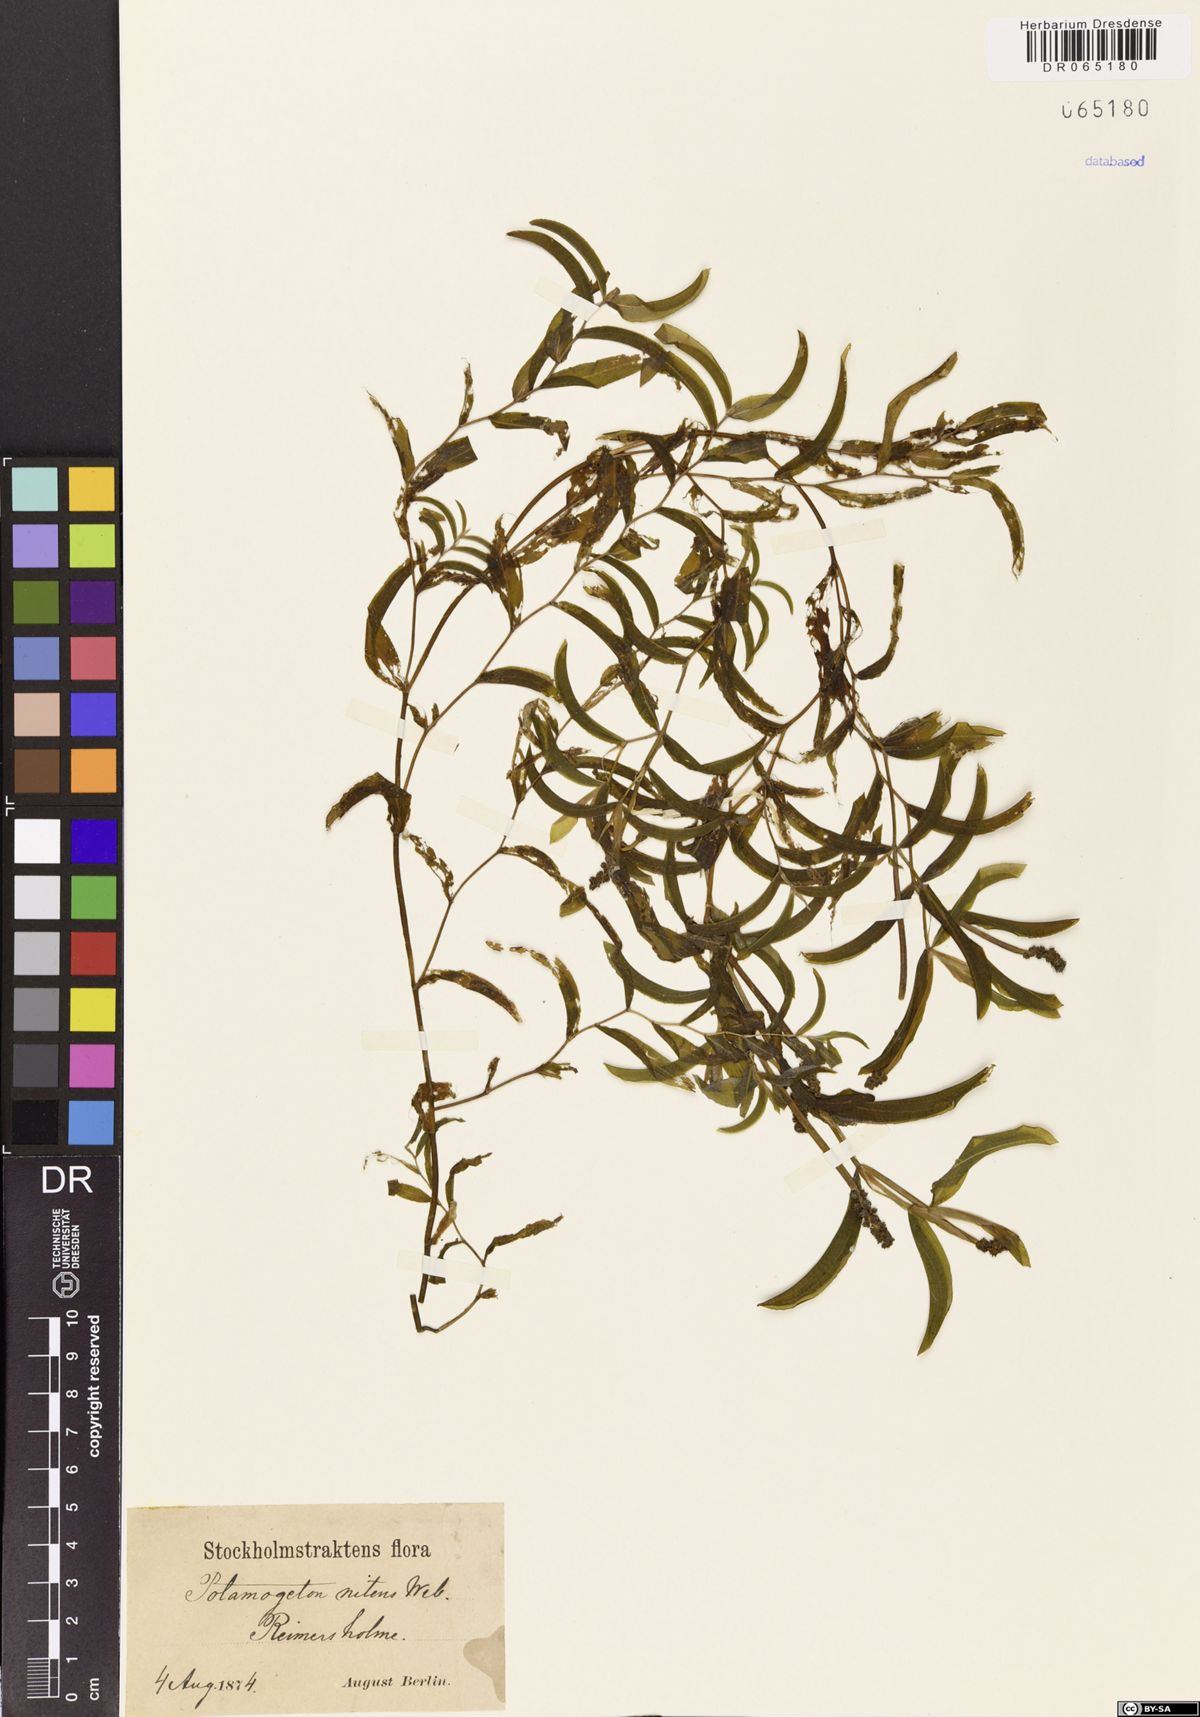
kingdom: Plantae
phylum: Tracheophyta
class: Liliopsida
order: Alismatales
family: Potamogetonaceae
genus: Potamogeton
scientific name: Potamogeton nitens
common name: Pondweed
